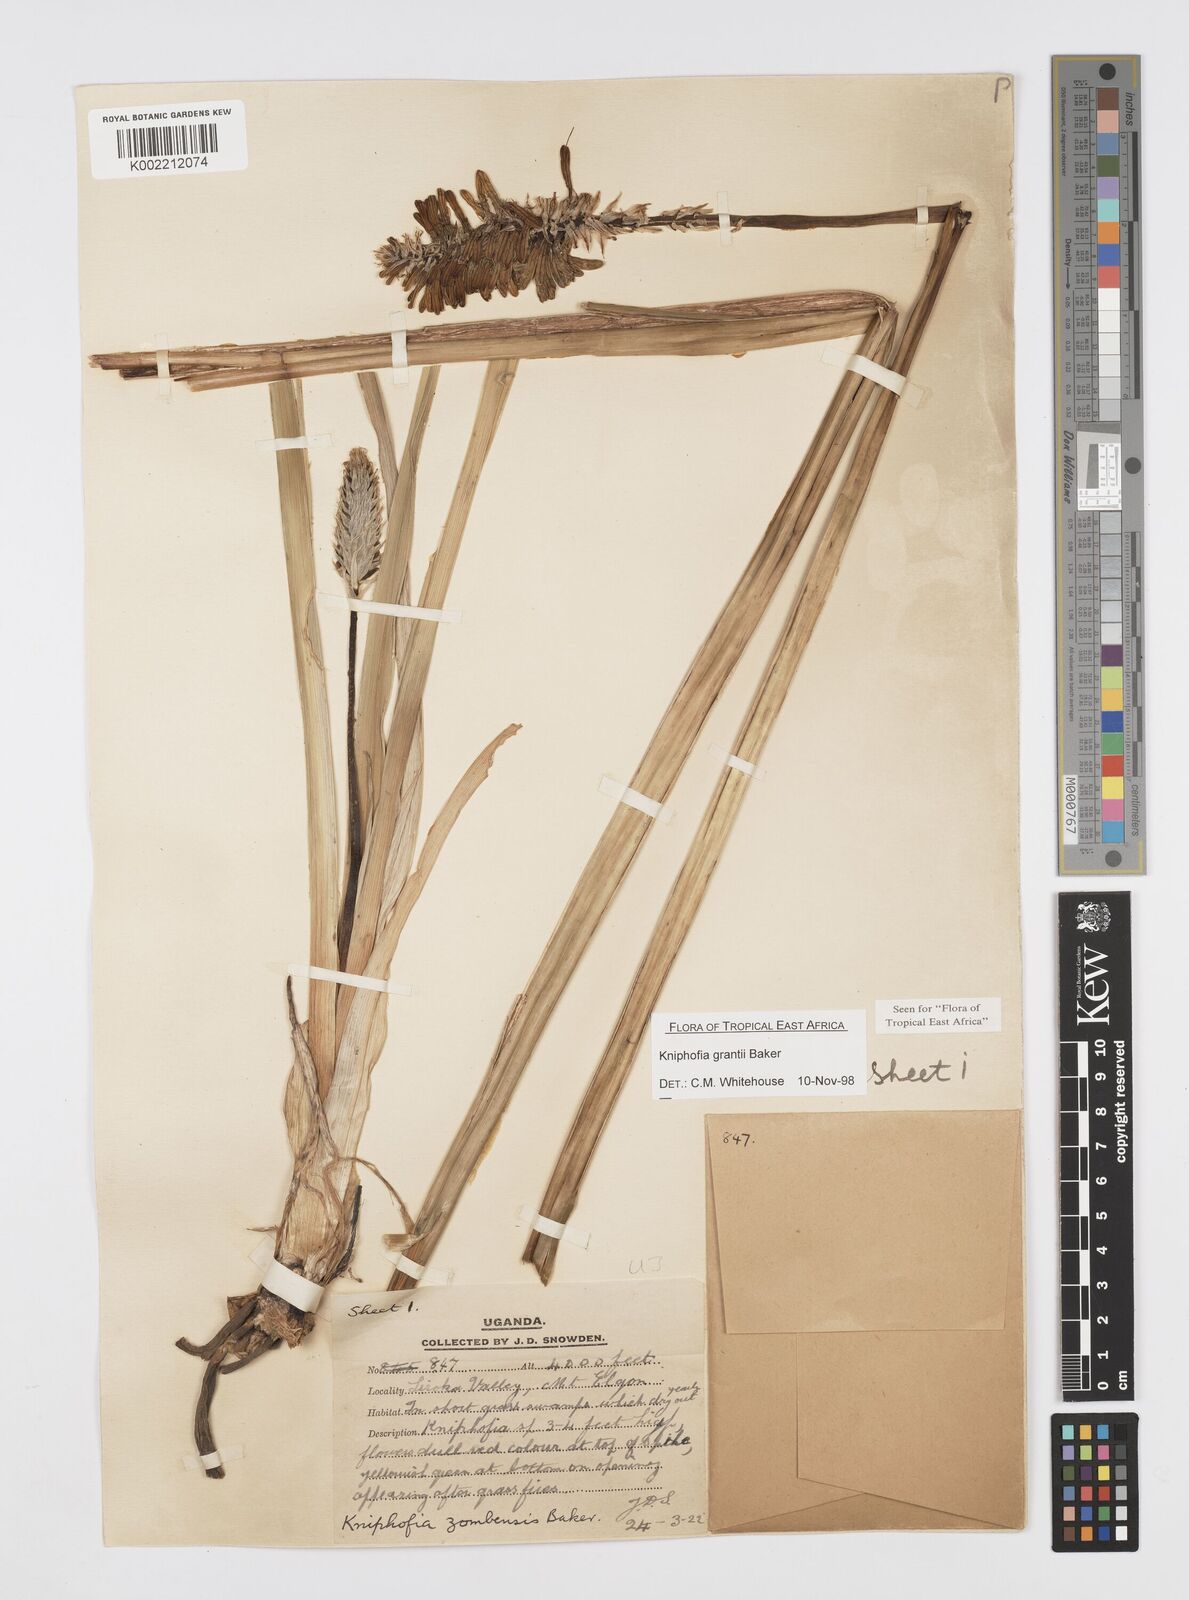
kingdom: Plantae
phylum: Tracheophyta
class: Liliopsida
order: Asparagales
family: Asphodelaceae
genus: Kniphofia
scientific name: Kniphofia grantii
